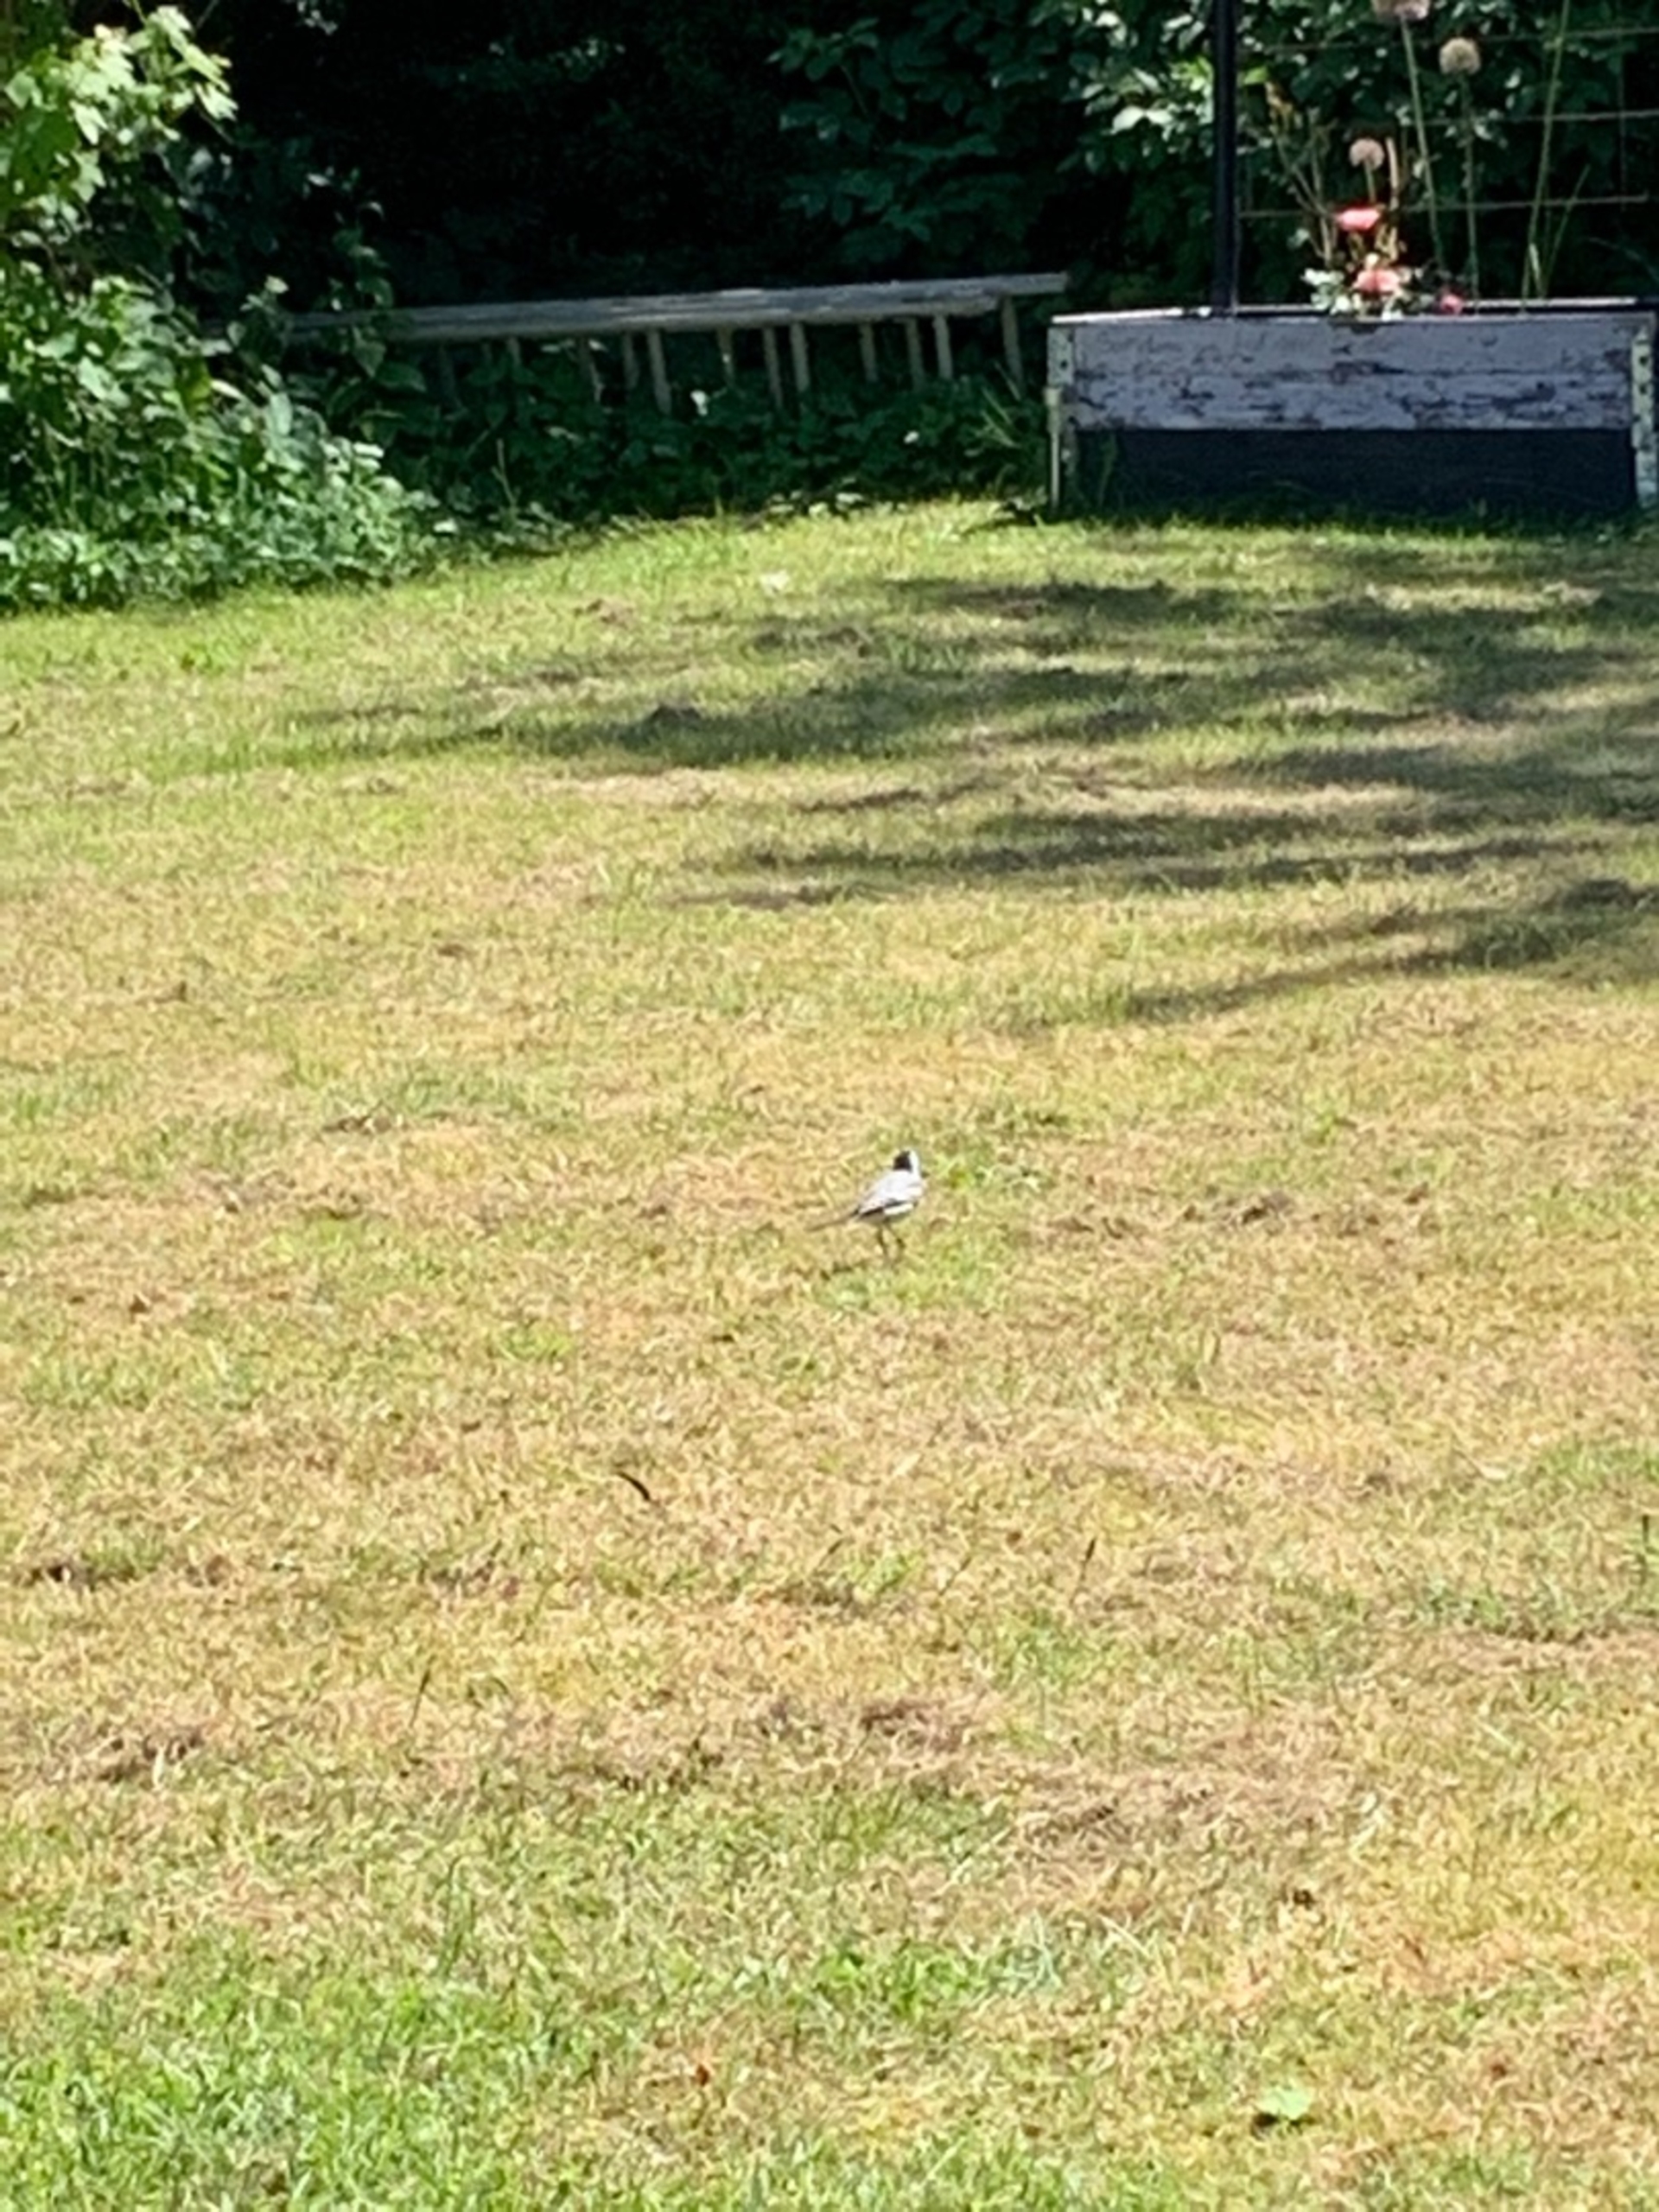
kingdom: Animalia
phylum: Chordata
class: Aves
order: Passeriformes
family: Motacillidae
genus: Motacilla
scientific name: Motacilla alba
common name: Hvid vipstjert
